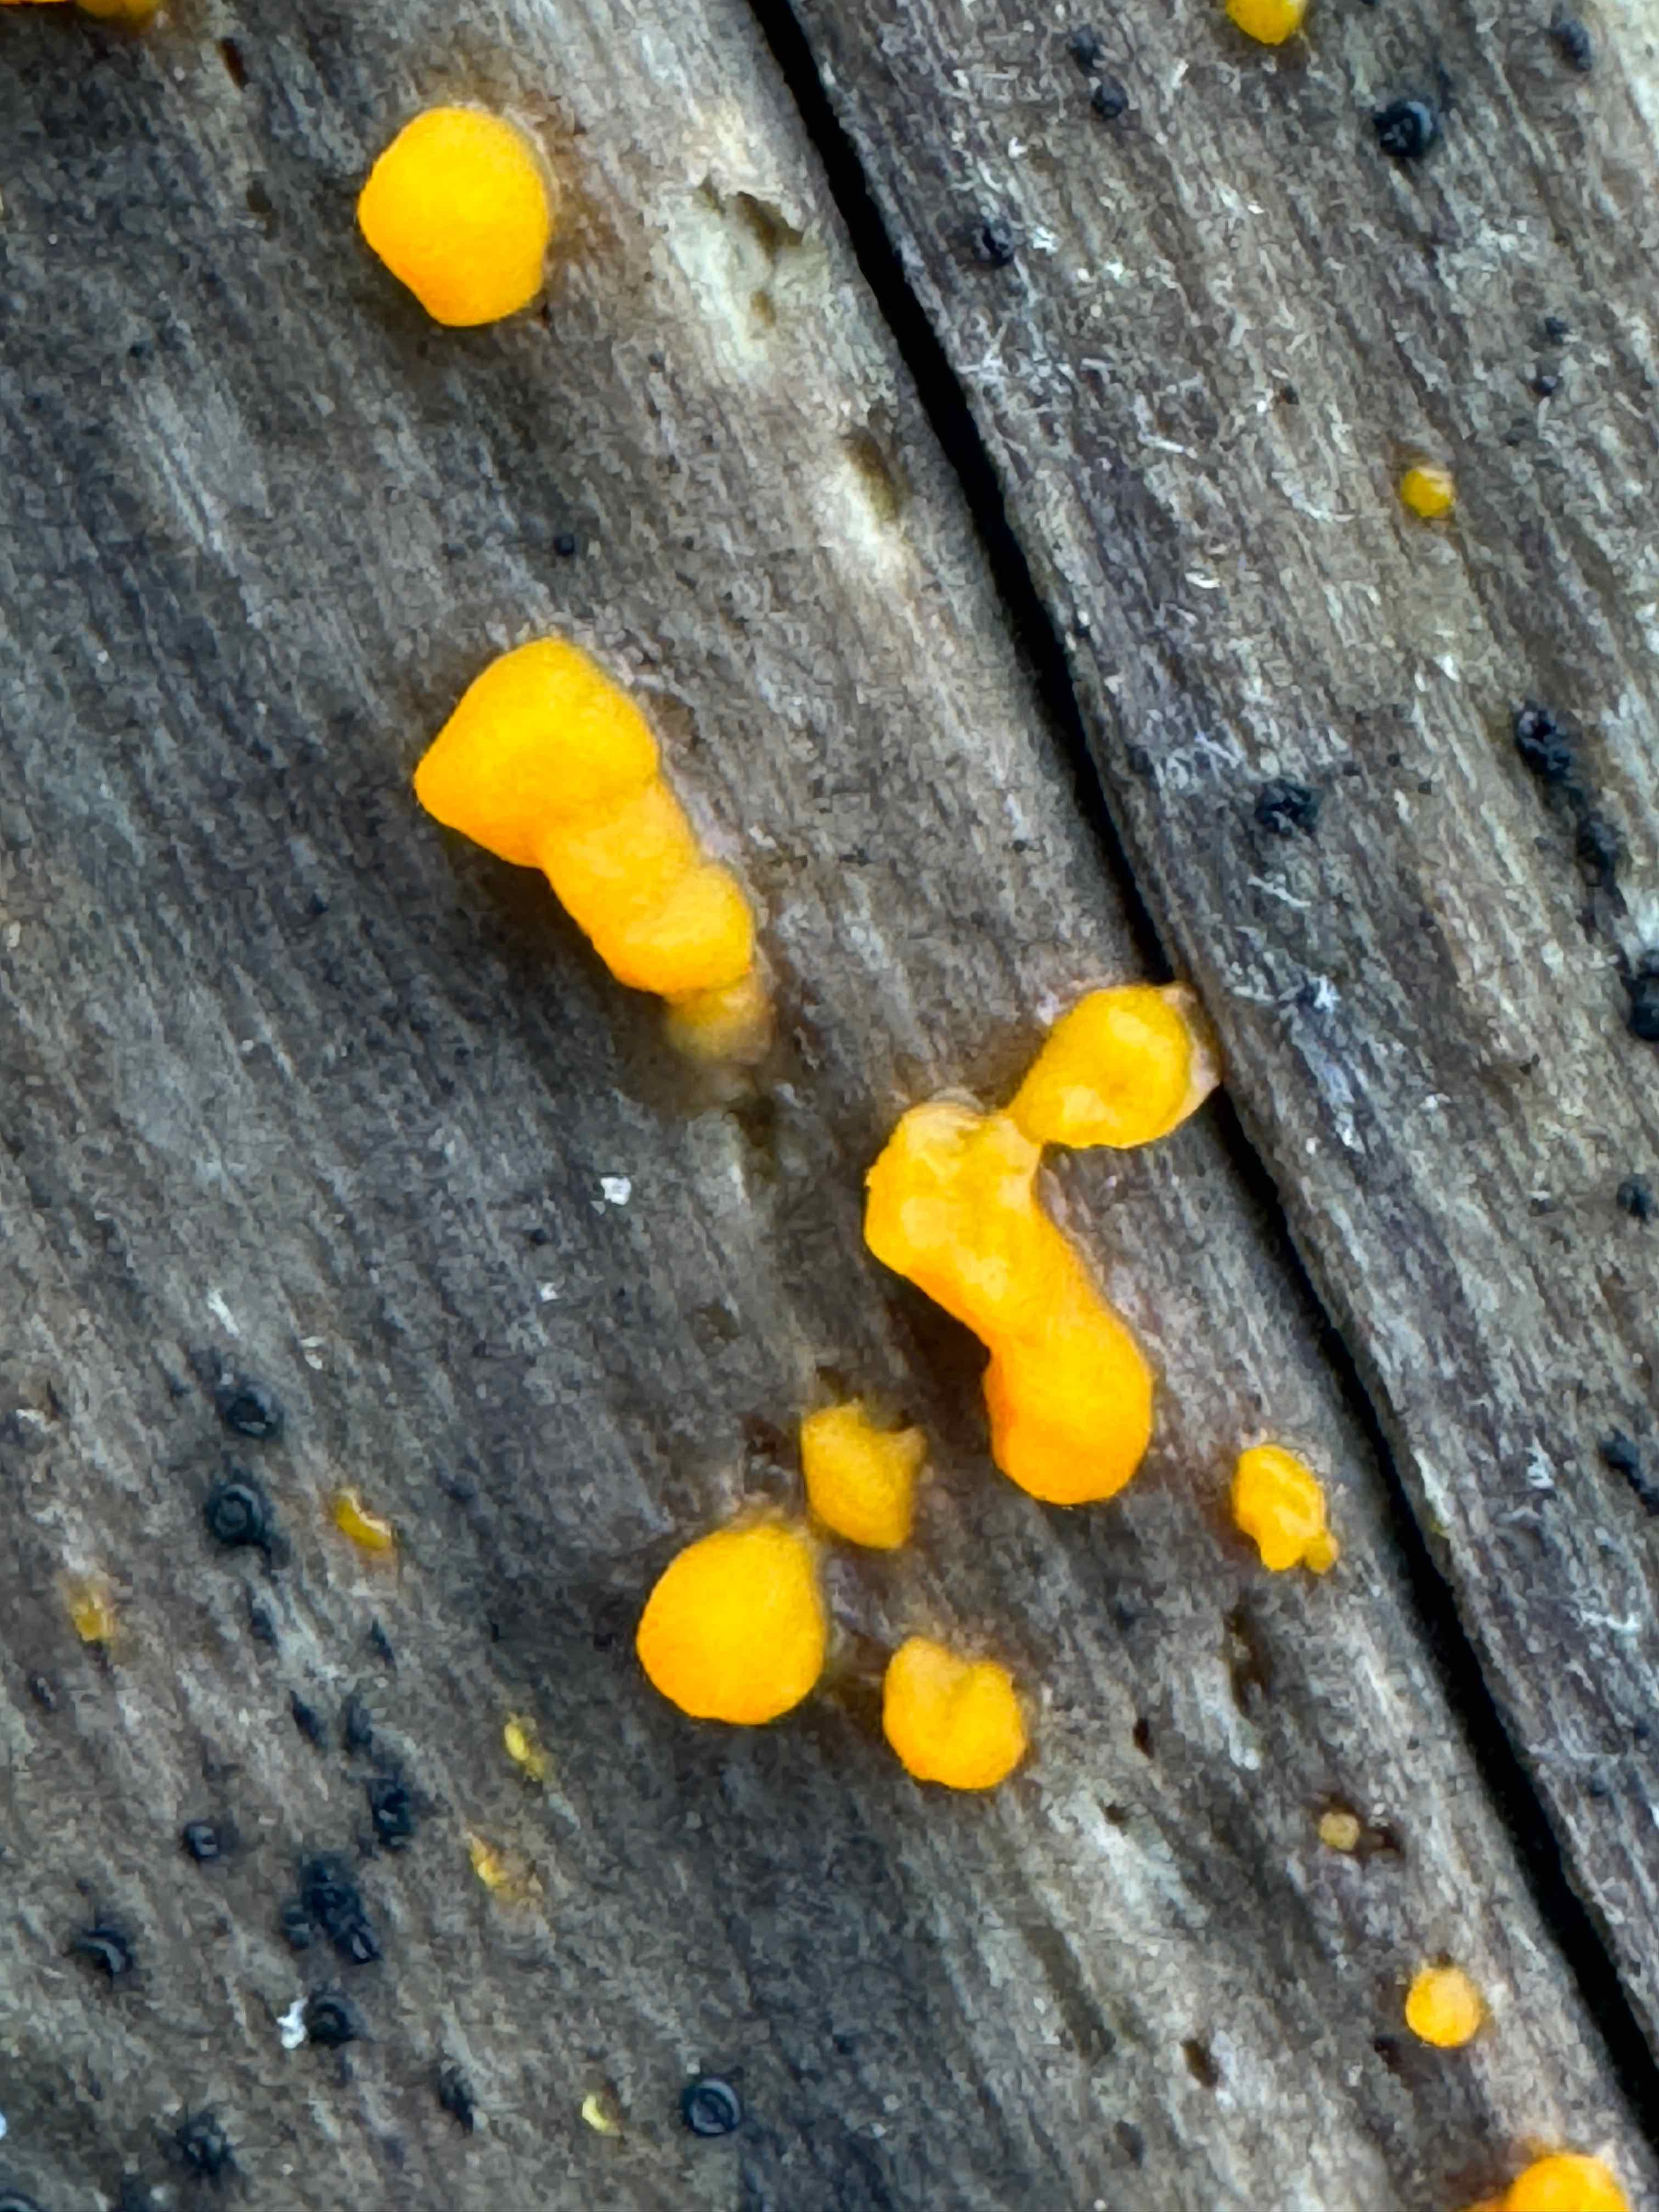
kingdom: Fungi
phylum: Basidiomycota
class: Dacrymycetes
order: Dacrymycetales
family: Dacrymycetaceae
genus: Dacrymyces
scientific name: Dacrymyces stillatus
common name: almindelig tåresvamp
